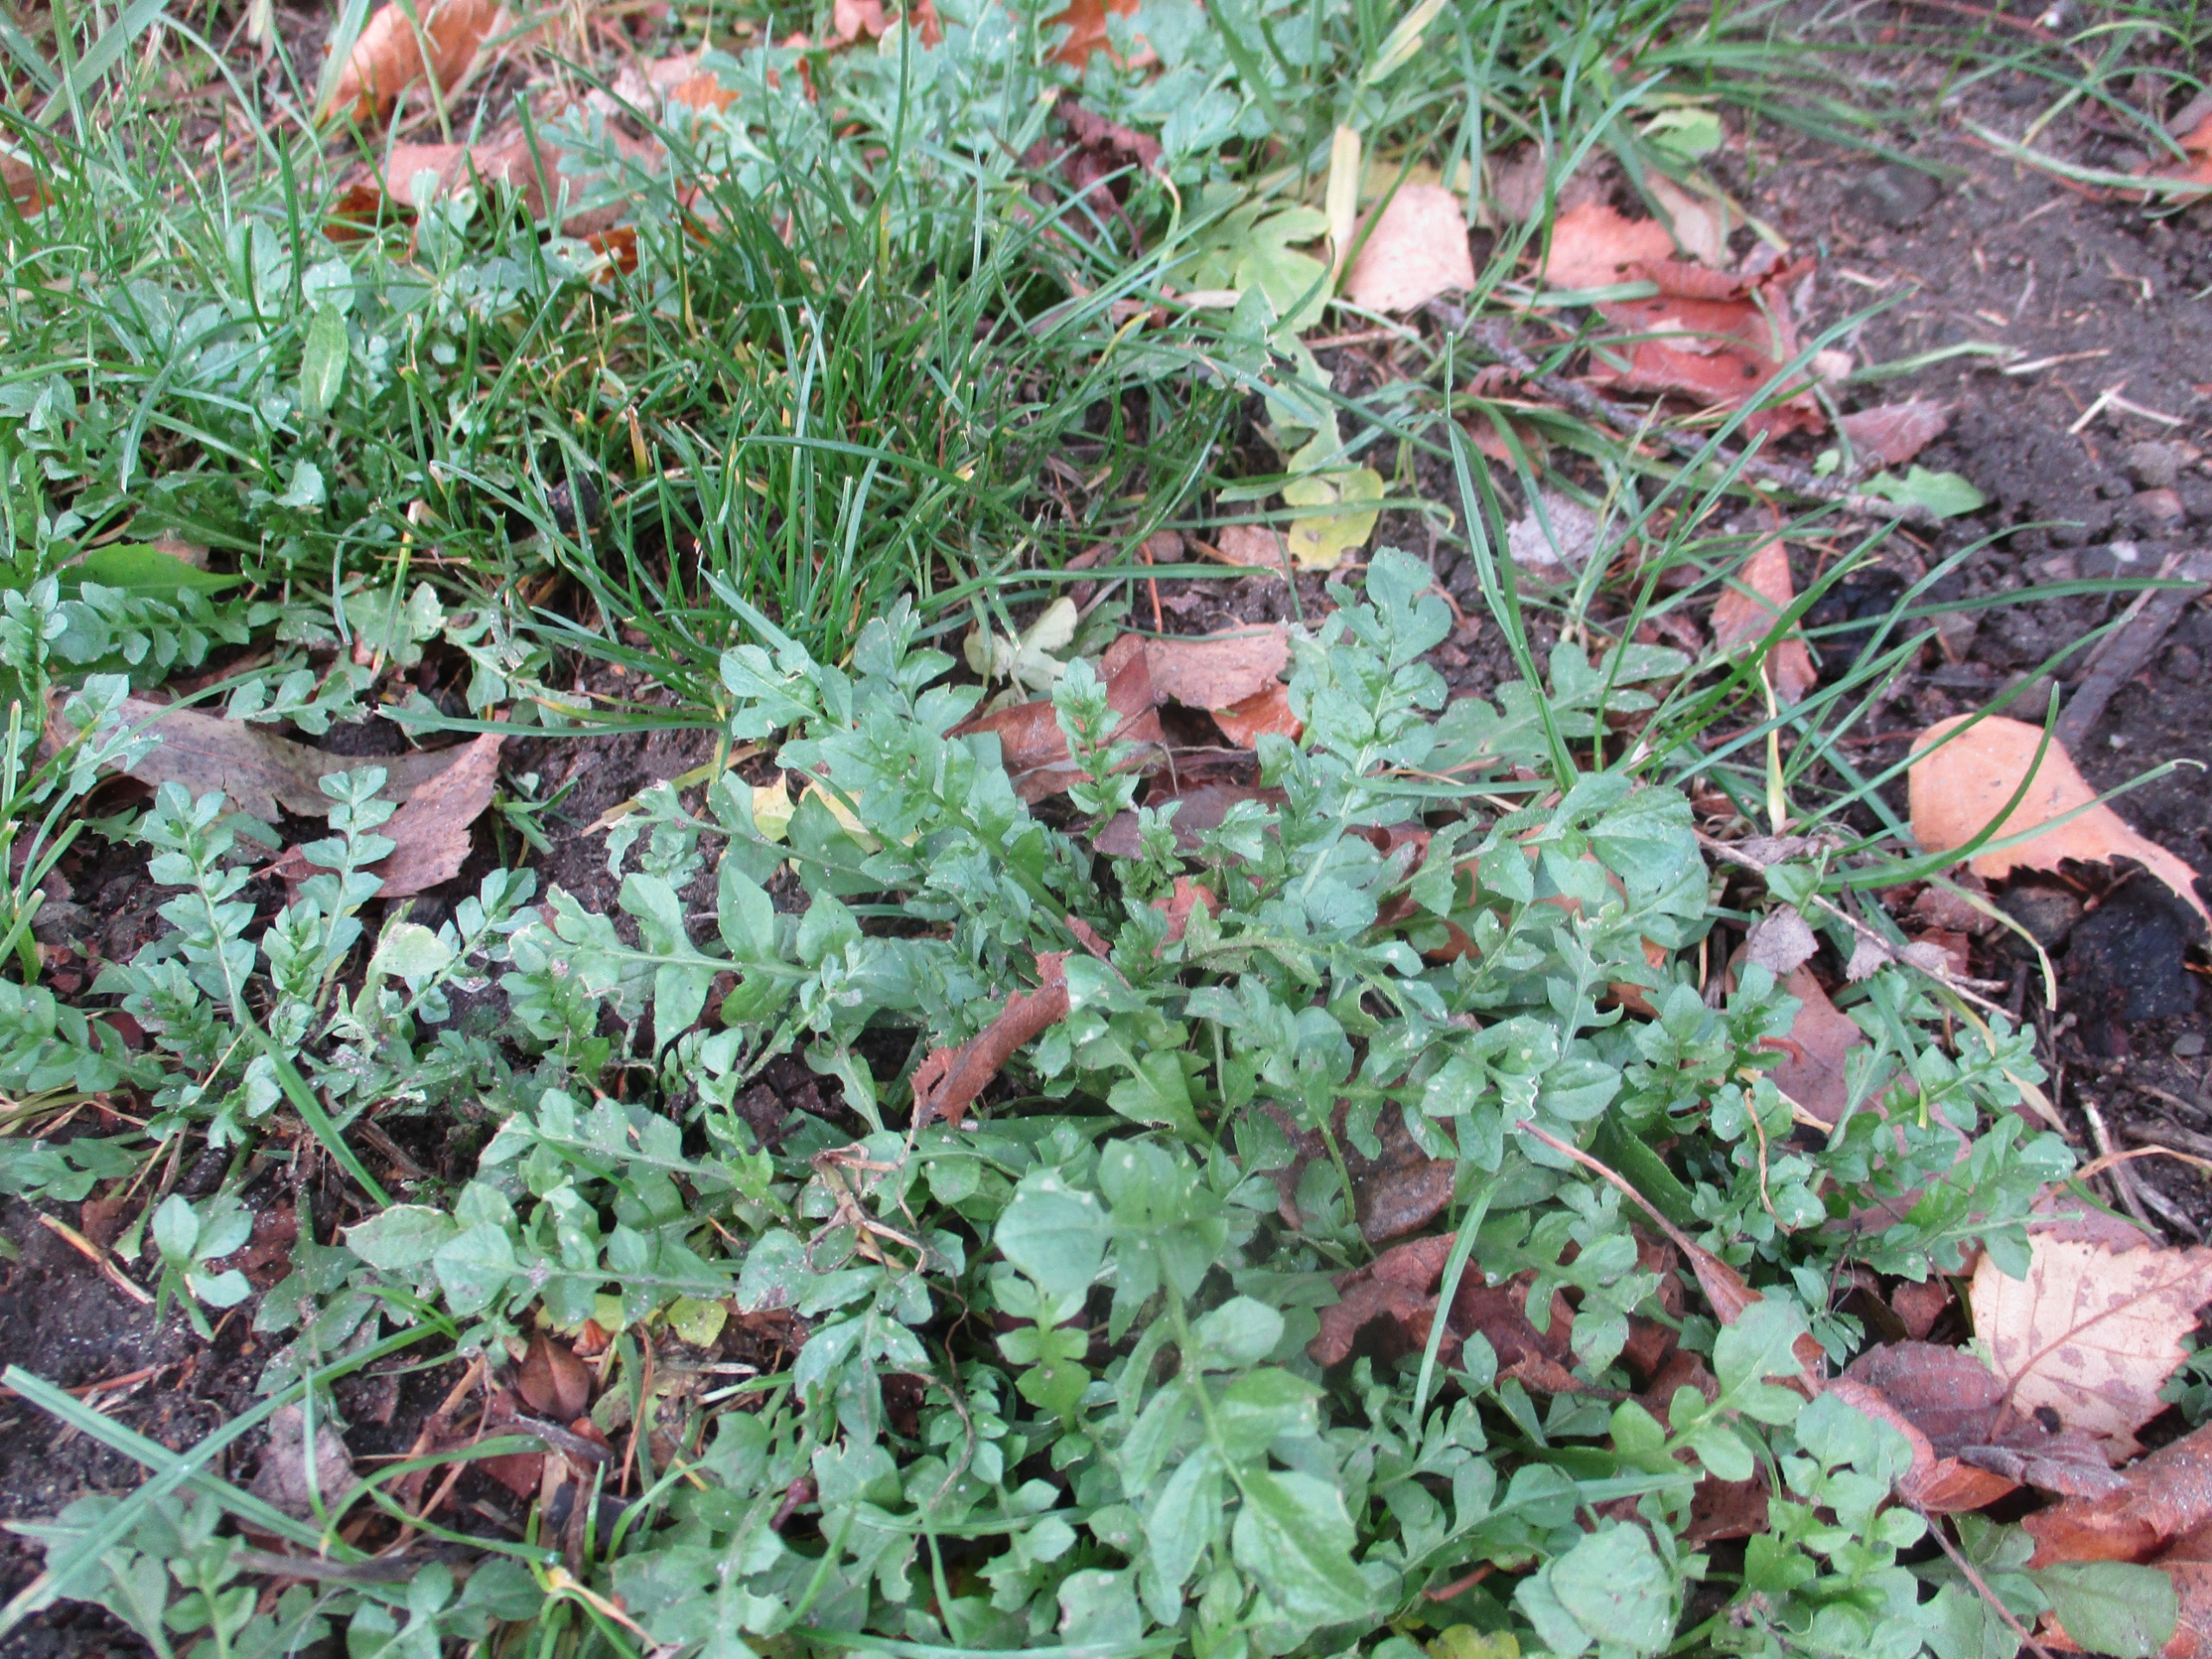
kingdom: Plantae
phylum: Tracheophyta
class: Magnoliopsida
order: Brassicales
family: Brassicaceae
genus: Capsella
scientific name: Capsella bursa-pastoris
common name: Hyrdetaske
